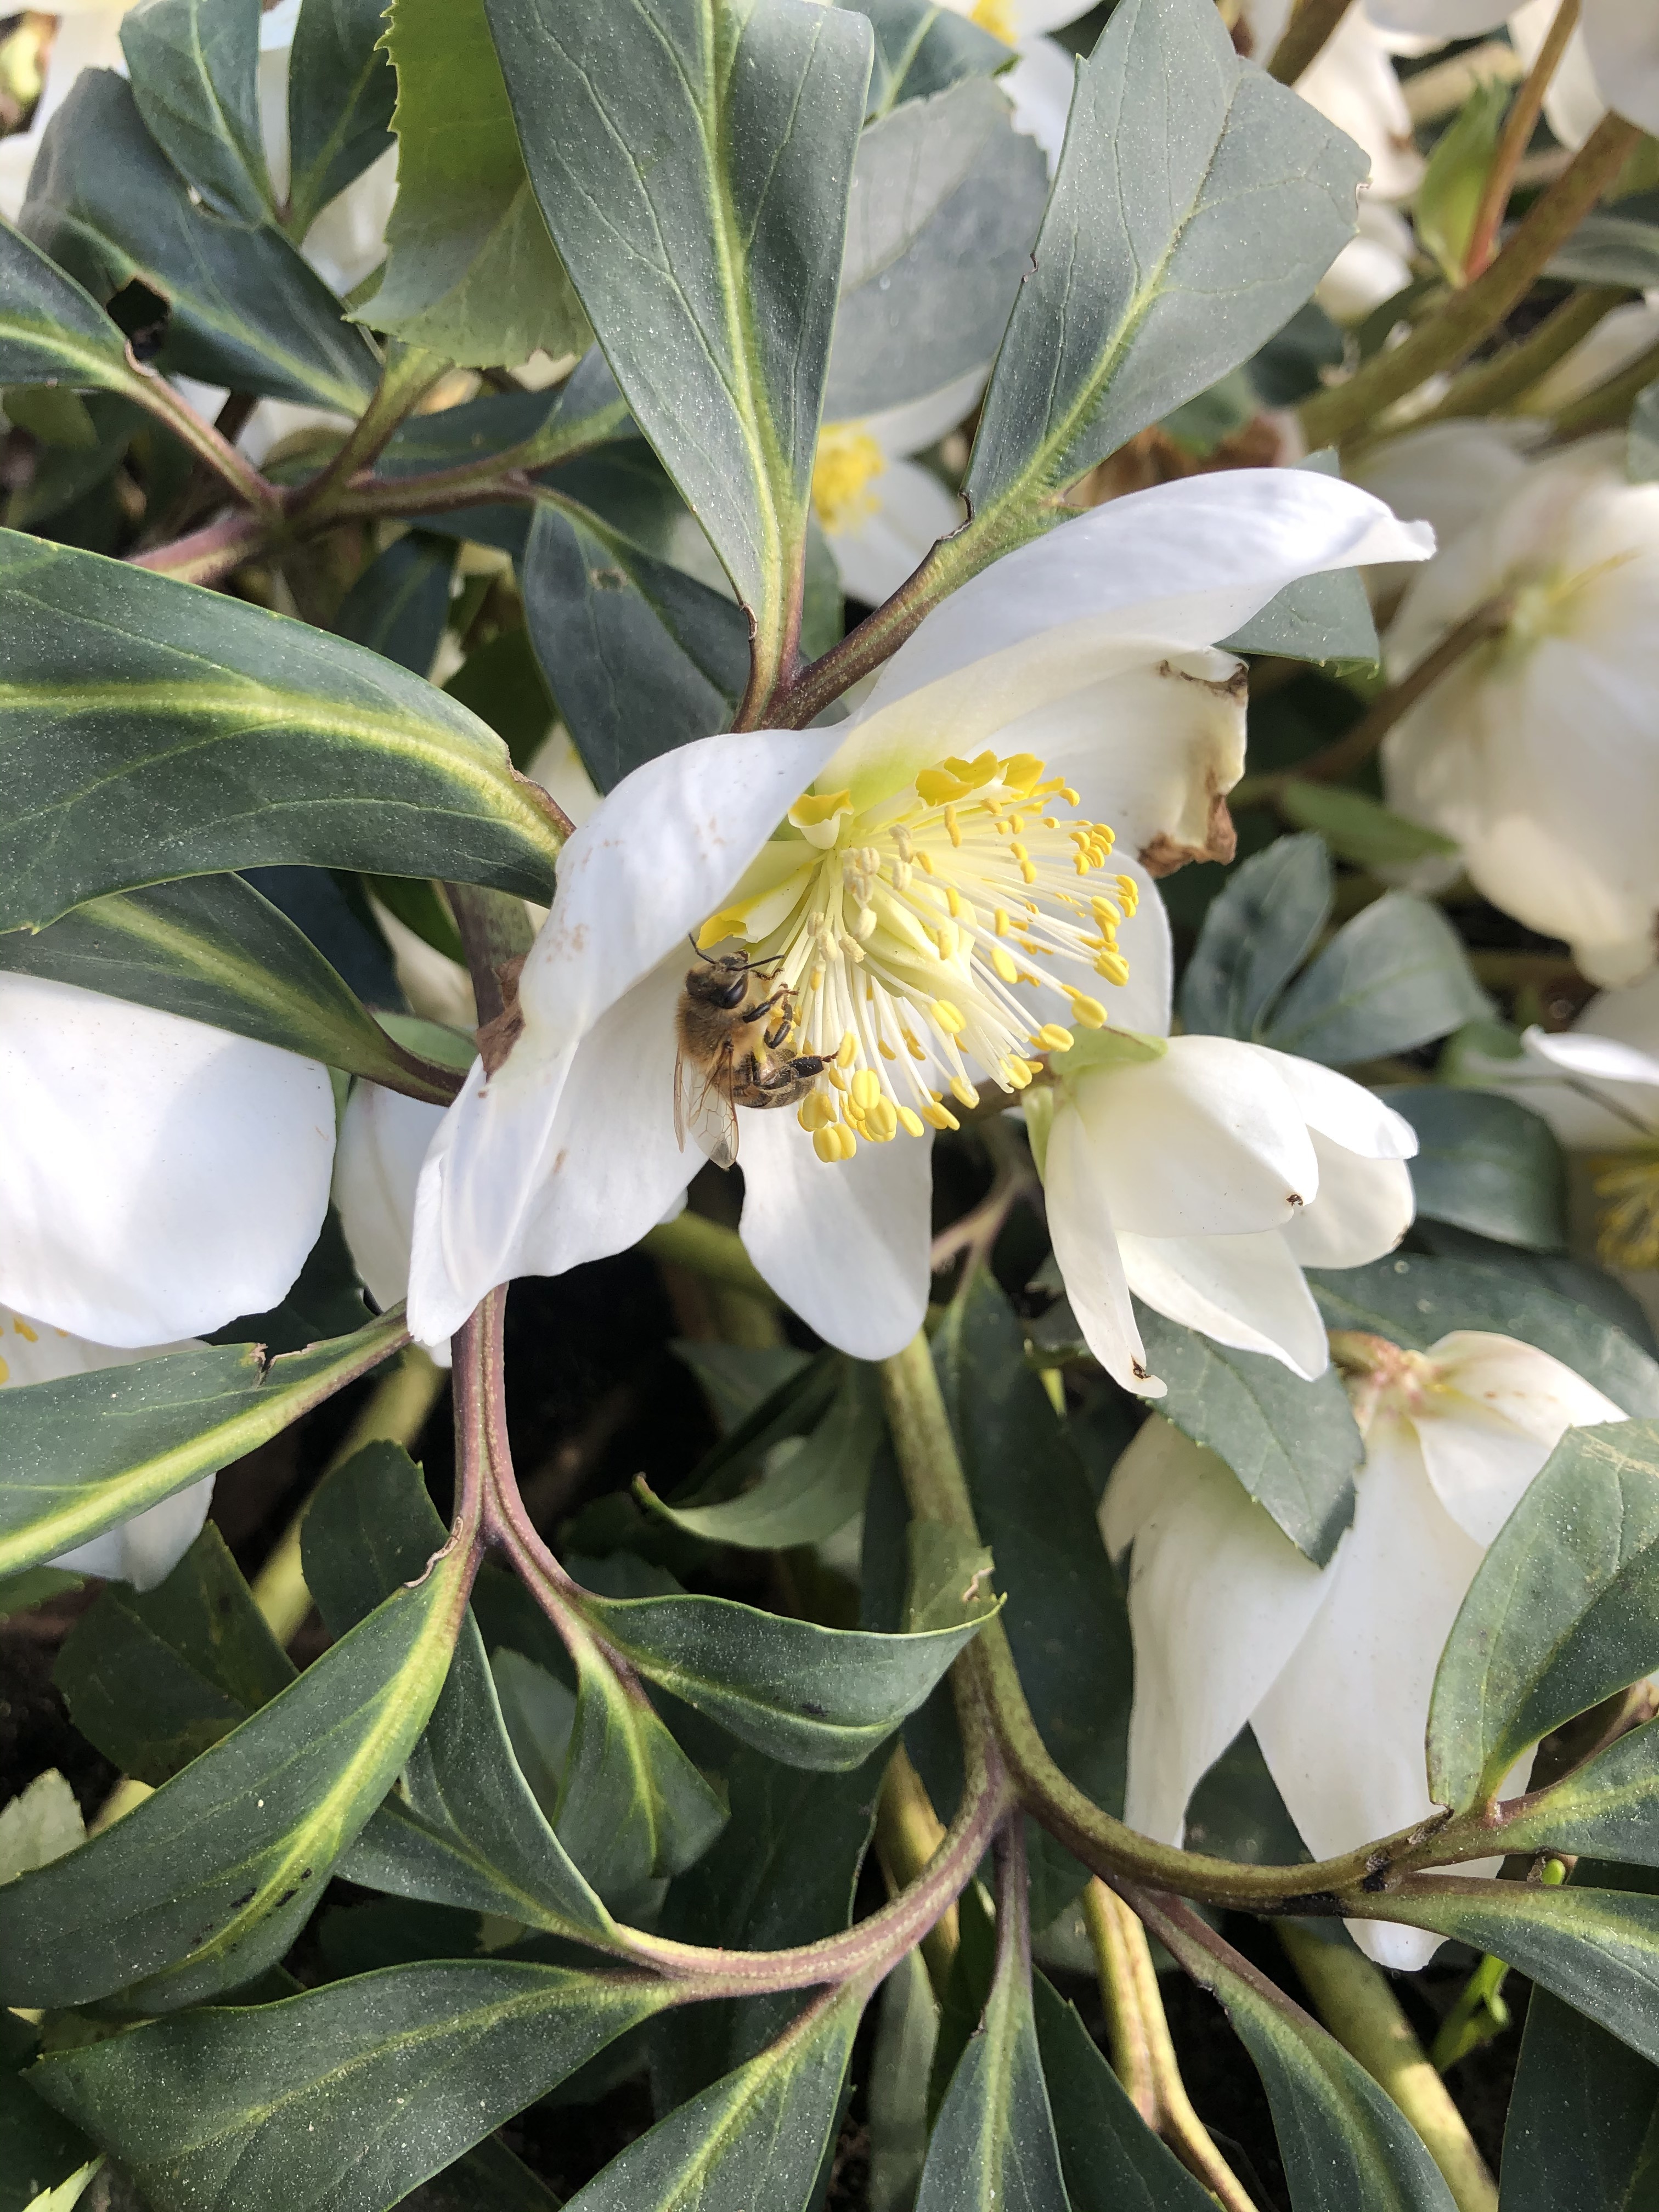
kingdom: Animalia
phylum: Arthropoda
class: Insecta
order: Hymenoptera
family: Apidae
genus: Apis
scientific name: Apis mellifera
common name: Honey bee
